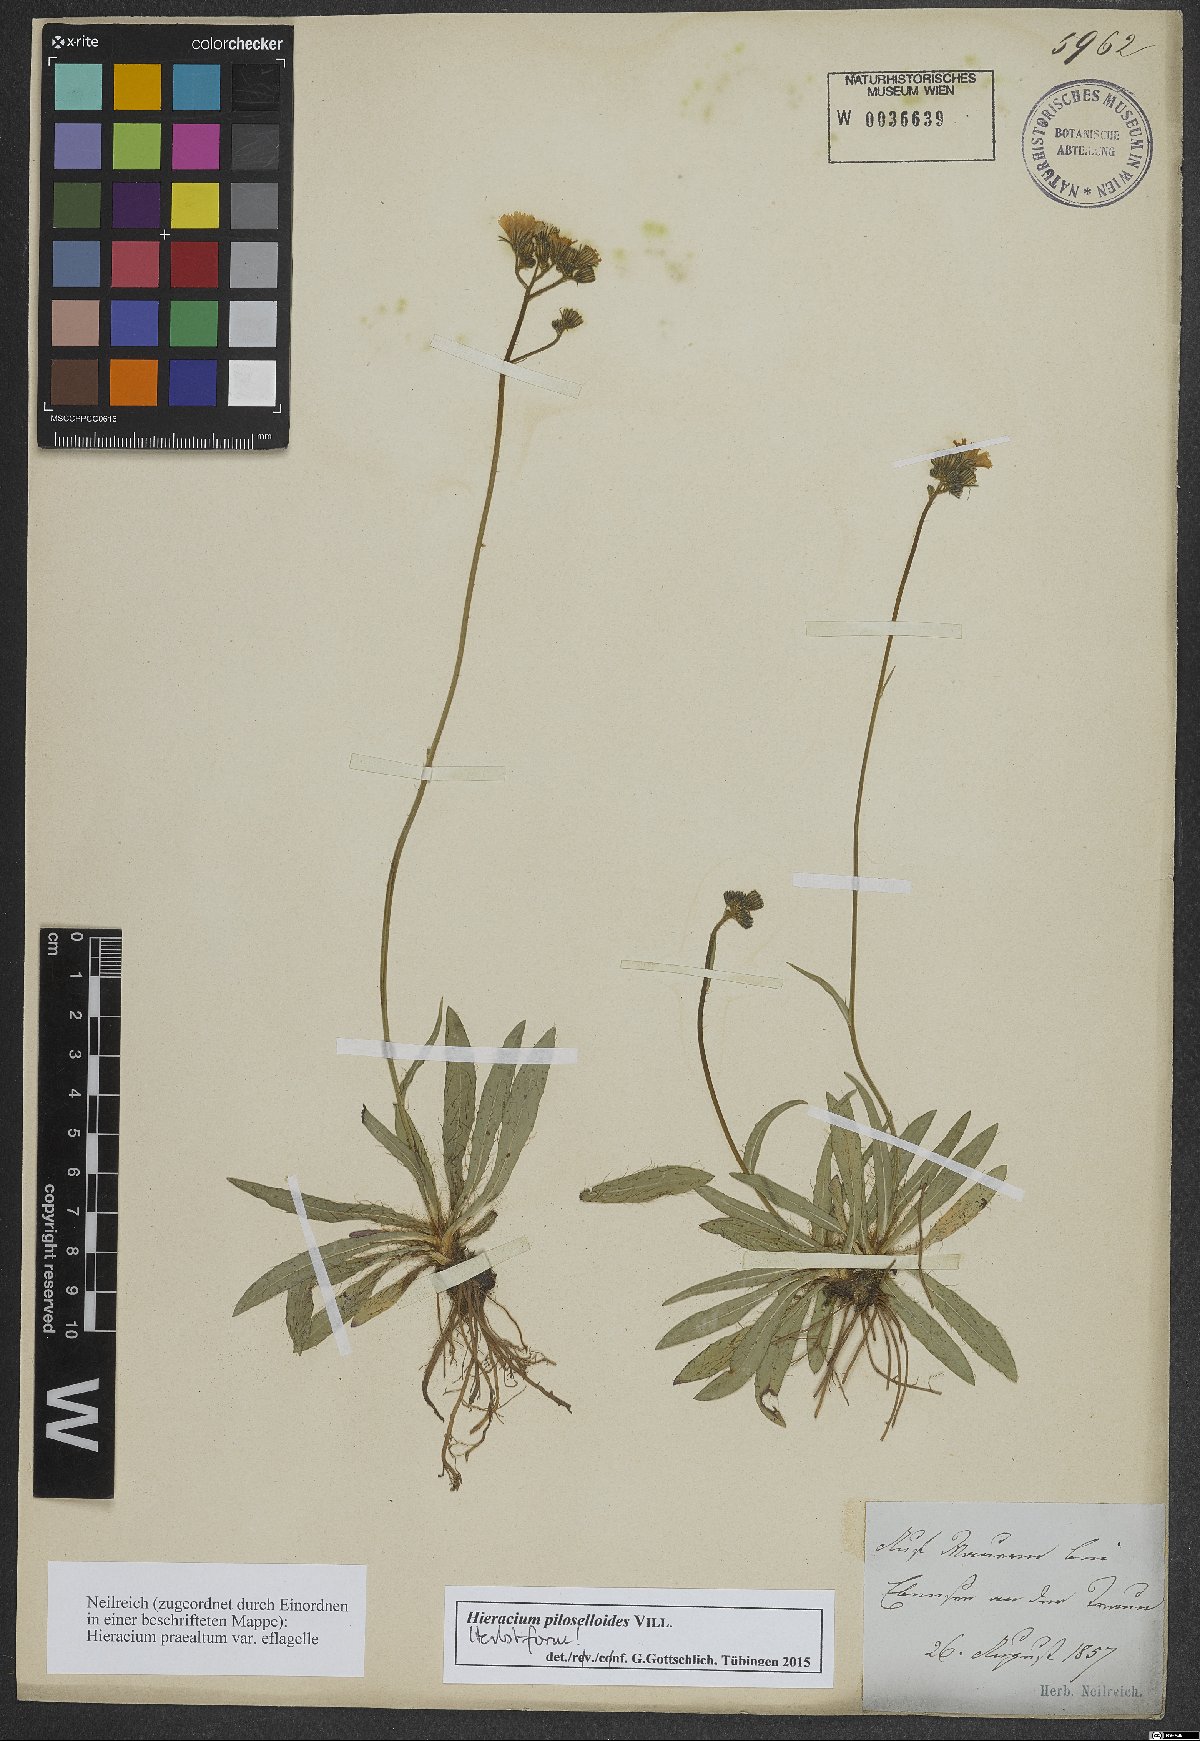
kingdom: Plantae
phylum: Tracheophyta
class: Magnoliopsida
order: Asterales
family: Asteraceae
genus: Pilosella
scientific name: Pilosella piloselloides
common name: Glaucous king-devil
